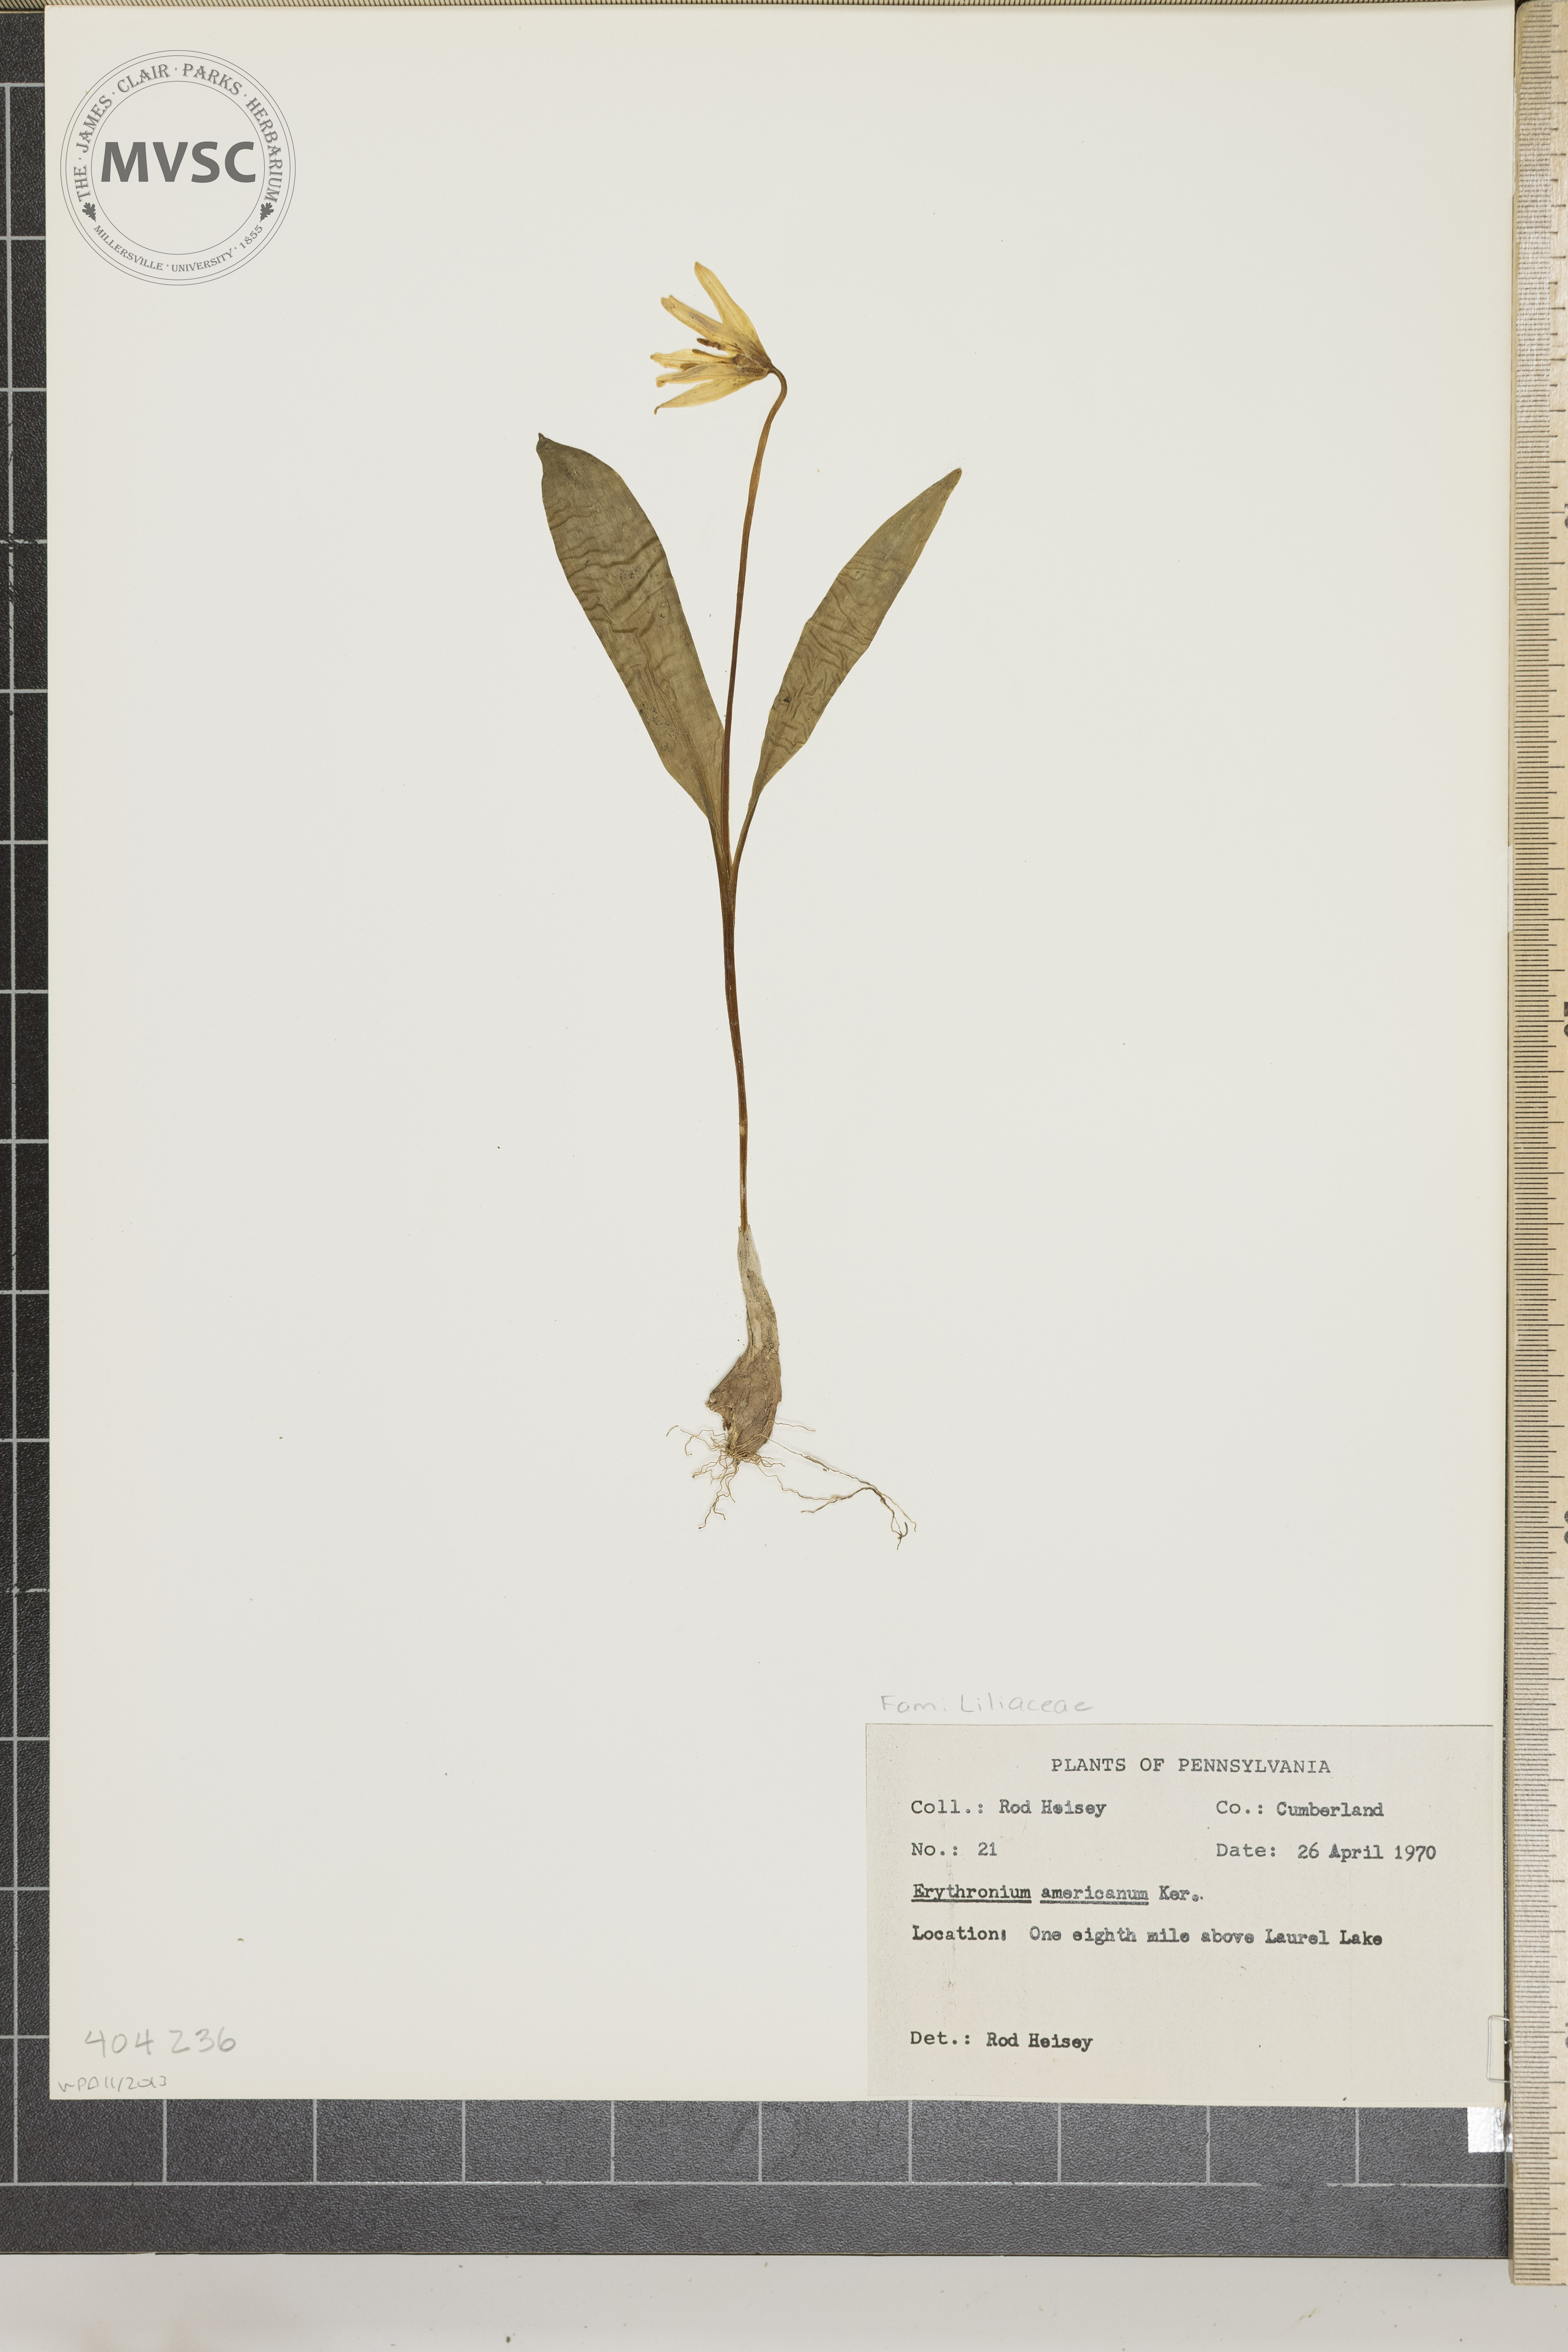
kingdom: Plantae
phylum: Tracheophyta
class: Liliopsida
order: Liliales
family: Liliaceae
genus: Erythronium
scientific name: Erythronium americanum
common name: Yellow adder's-tongue
